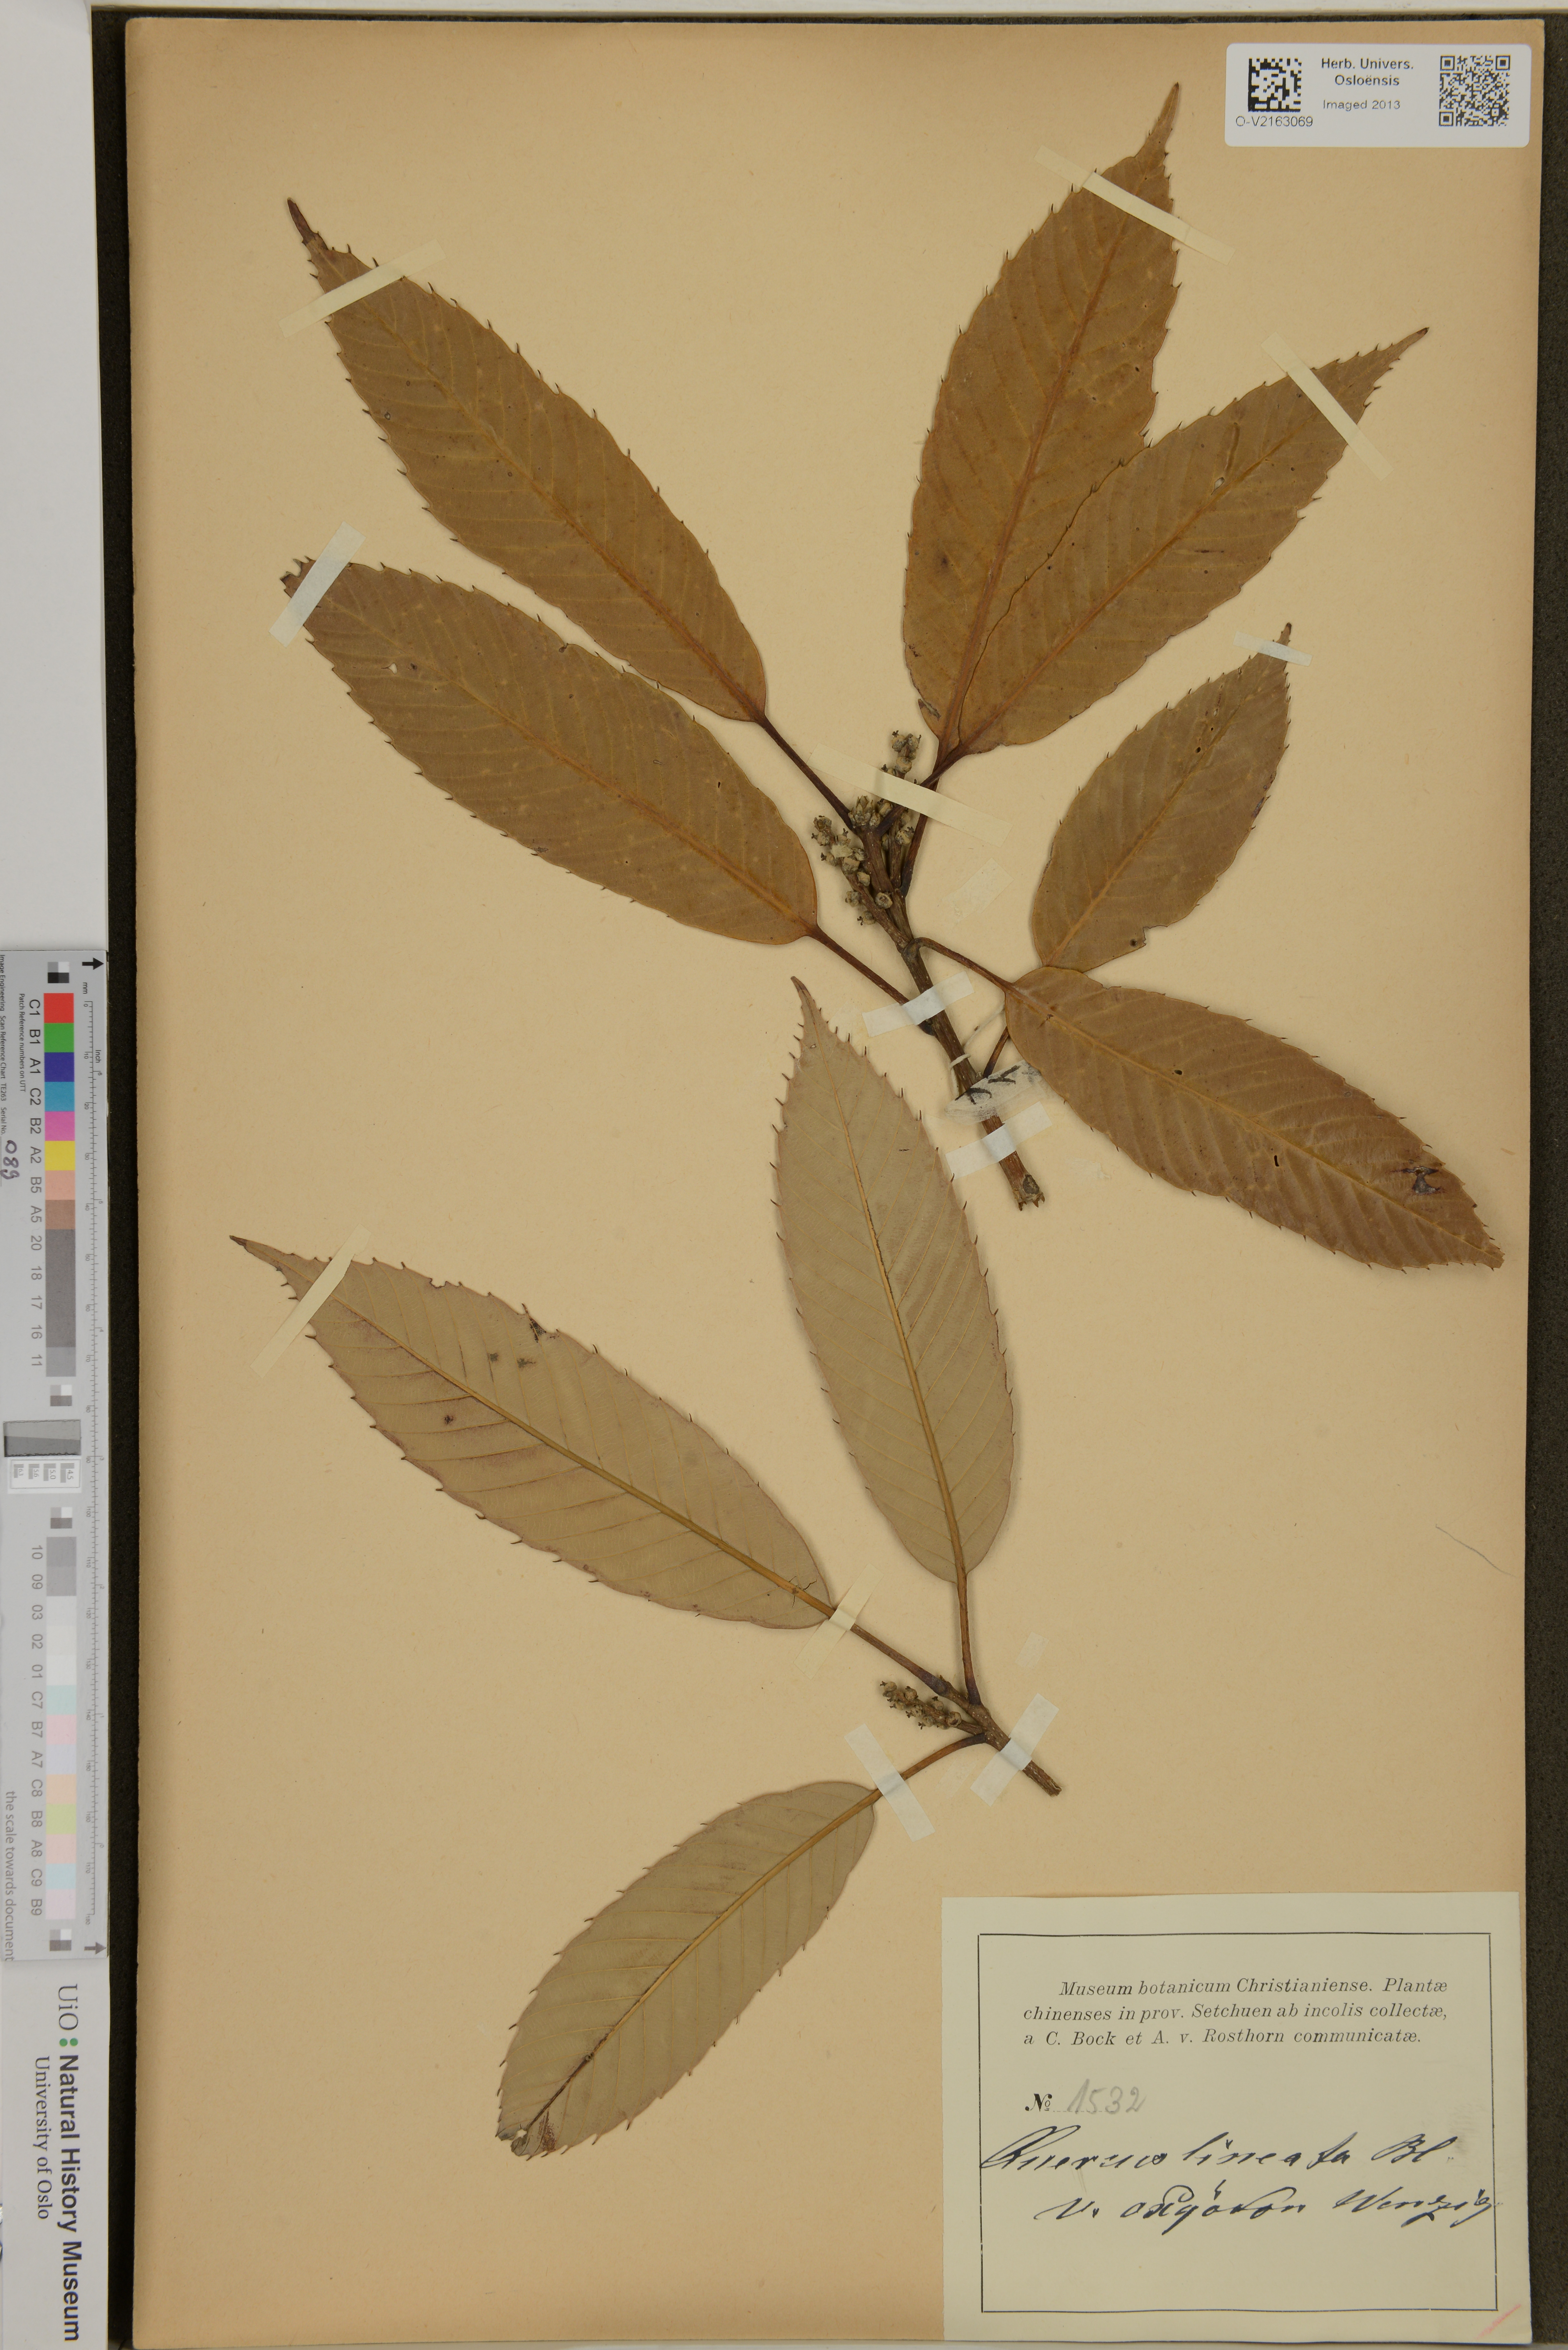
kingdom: Plantae
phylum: Tracheophyta
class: Magnoliopsida
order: Fagales
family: Fagaceae
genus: Quercus
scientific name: Quercus lineata
